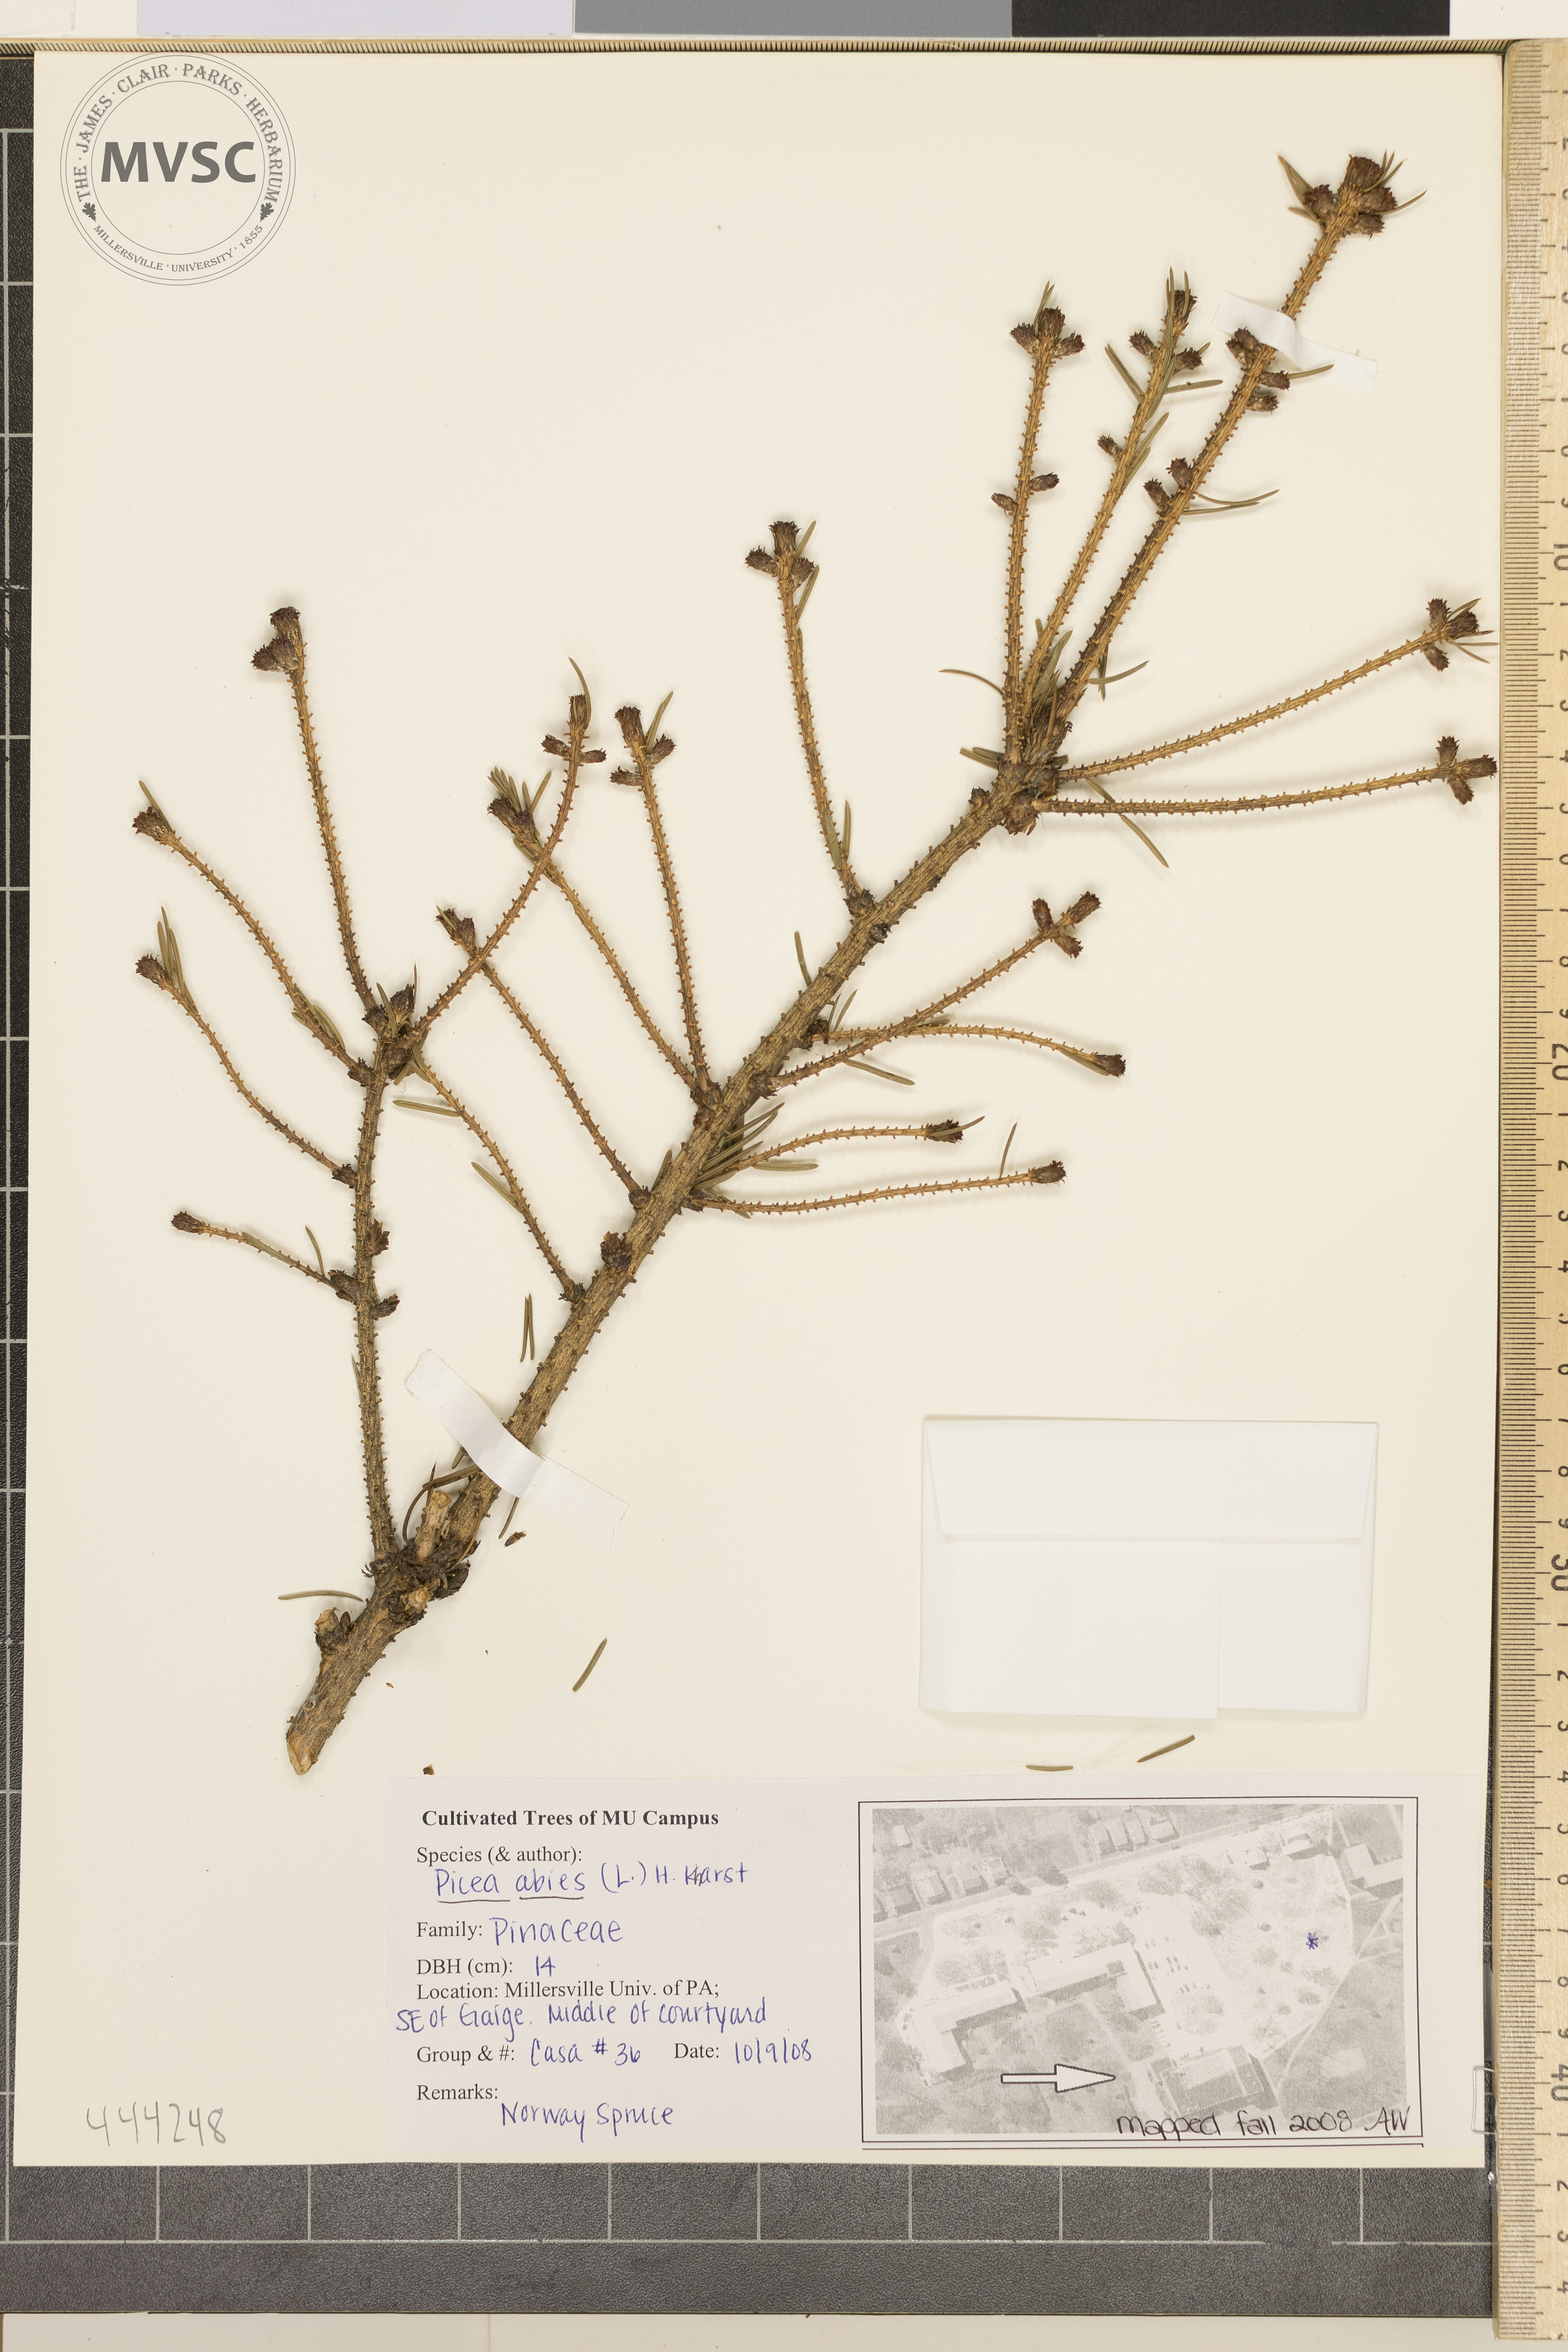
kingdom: Plantae
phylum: Tracheophyta
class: Pinopsida
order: Pinales
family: Pinaceae
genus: Picea
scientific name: Picea abies
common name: Norway spruce
